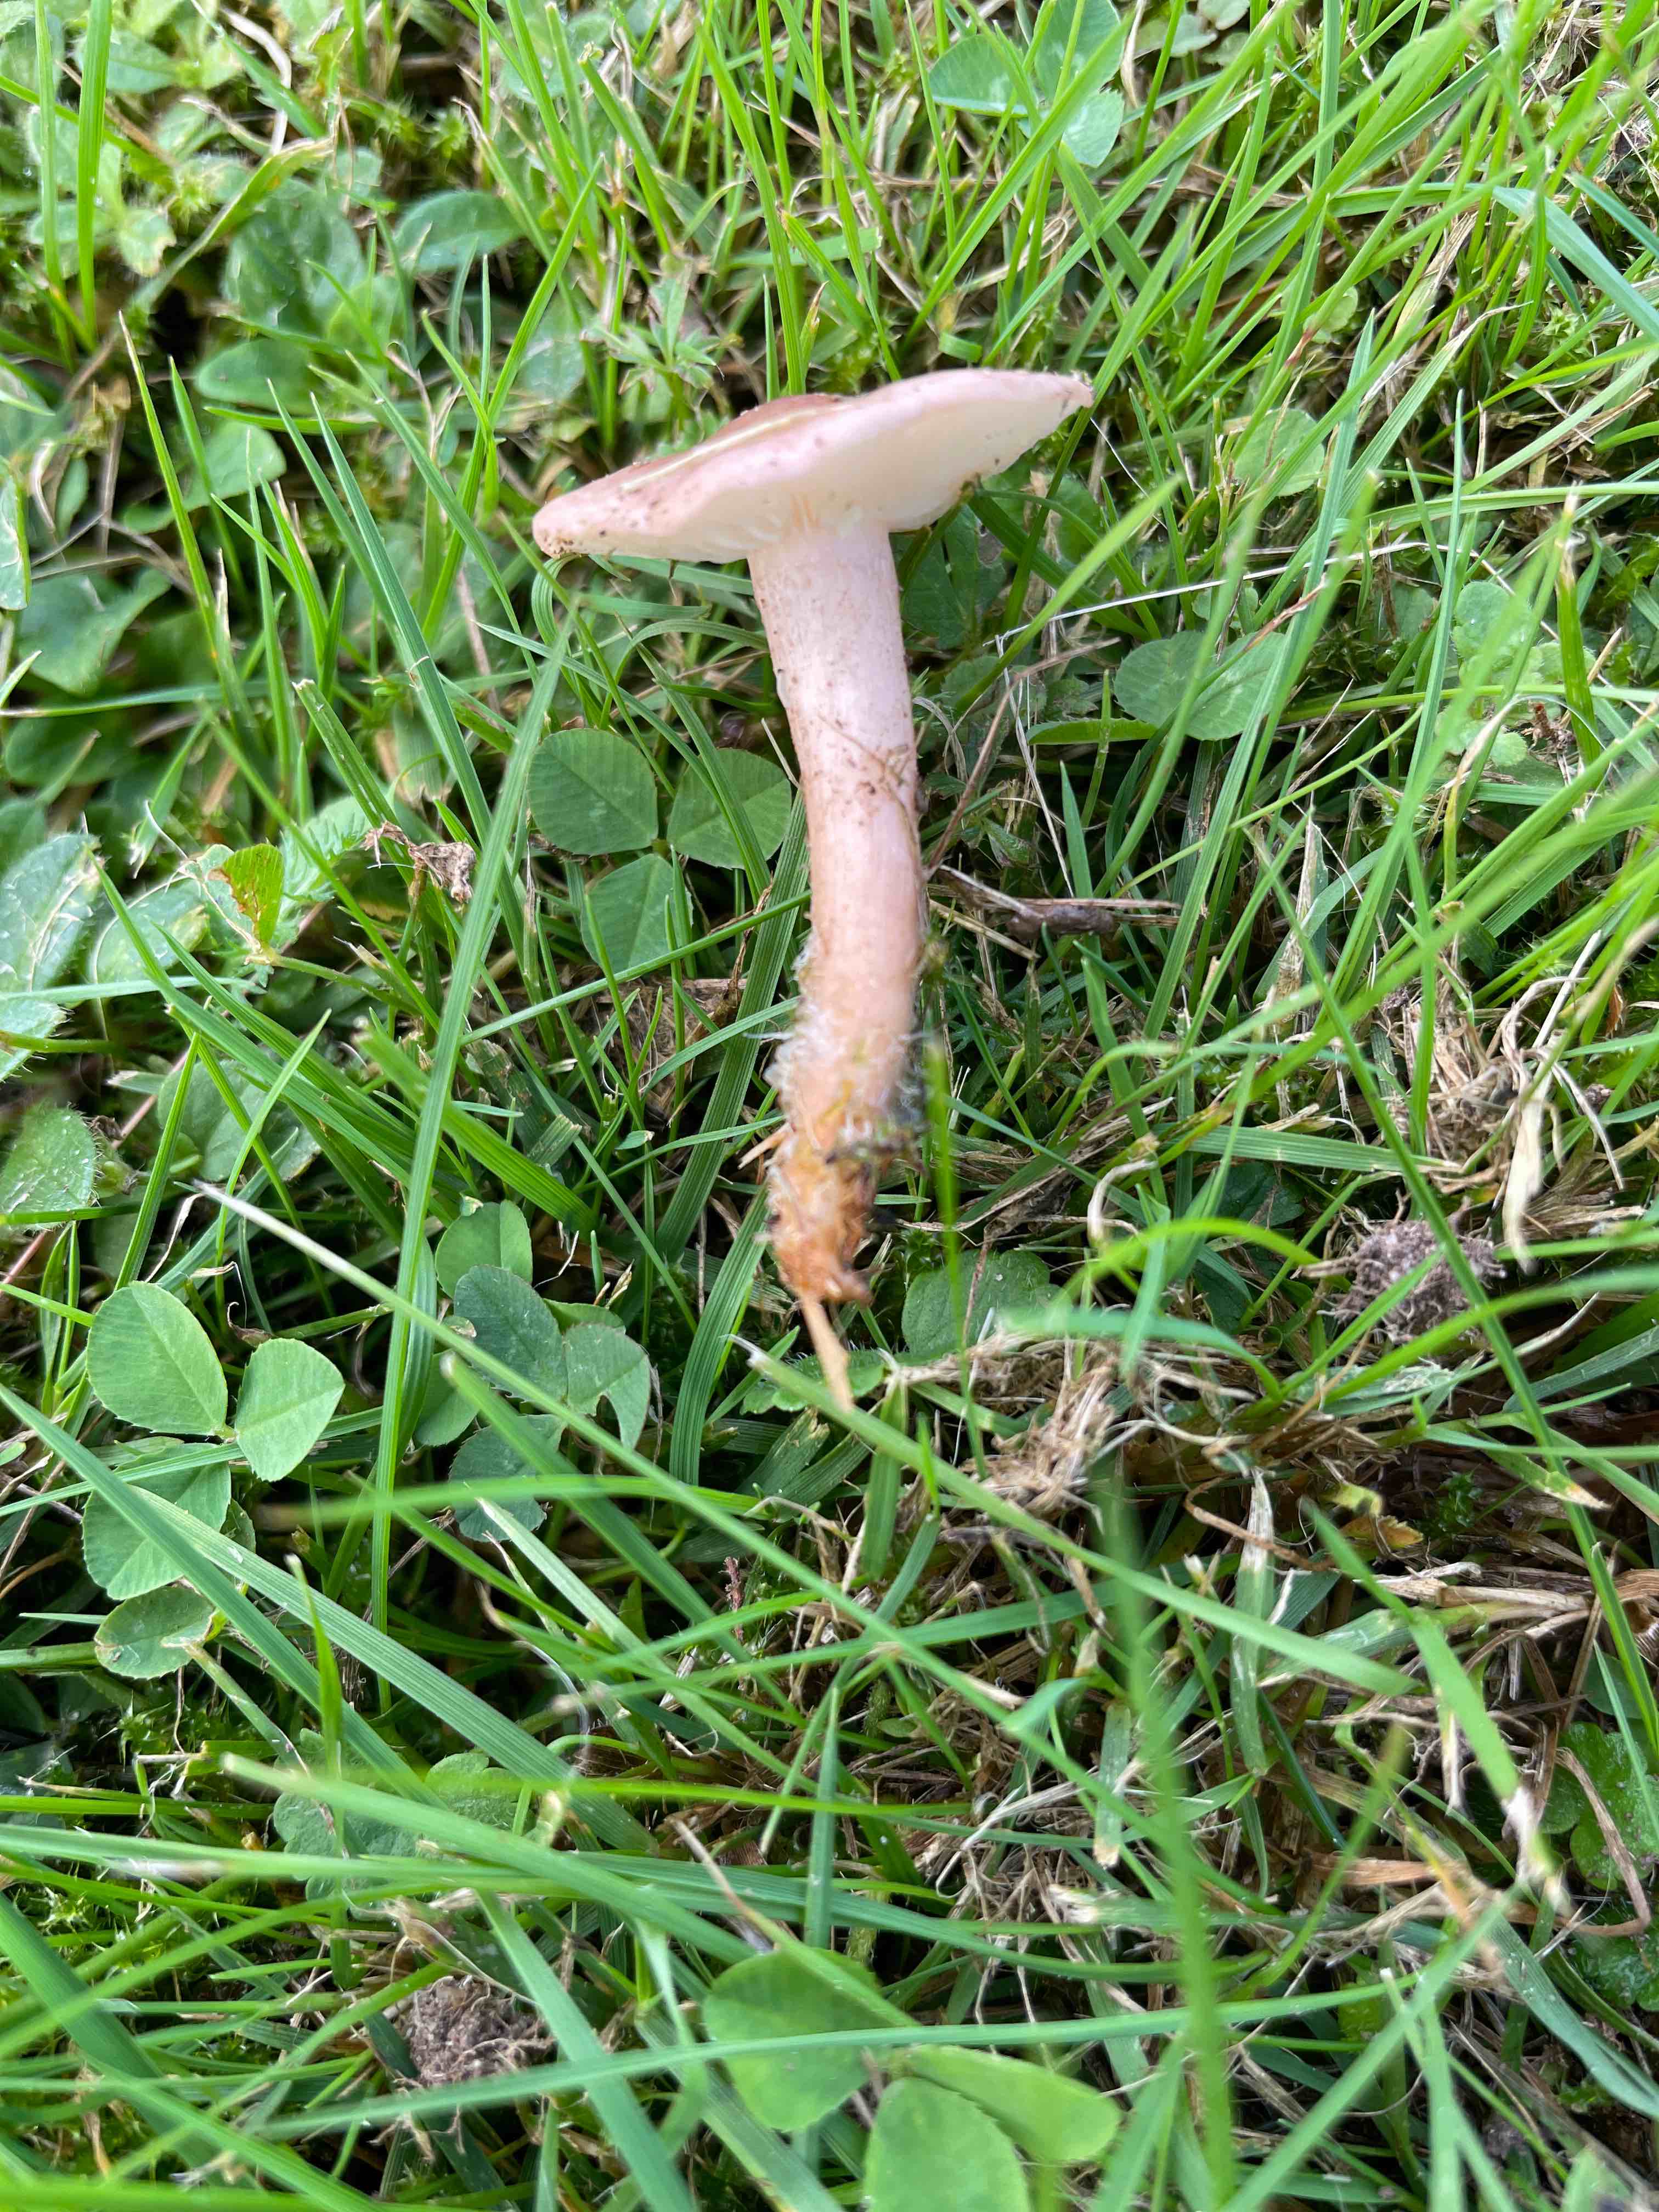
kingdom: Fungi
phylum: Basidiomycota
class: Agaricomycetes
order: Agaricales
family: Lyophyllaceae
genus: Calocybe
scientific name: Calocybe carnea
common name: rosa fagerhat
